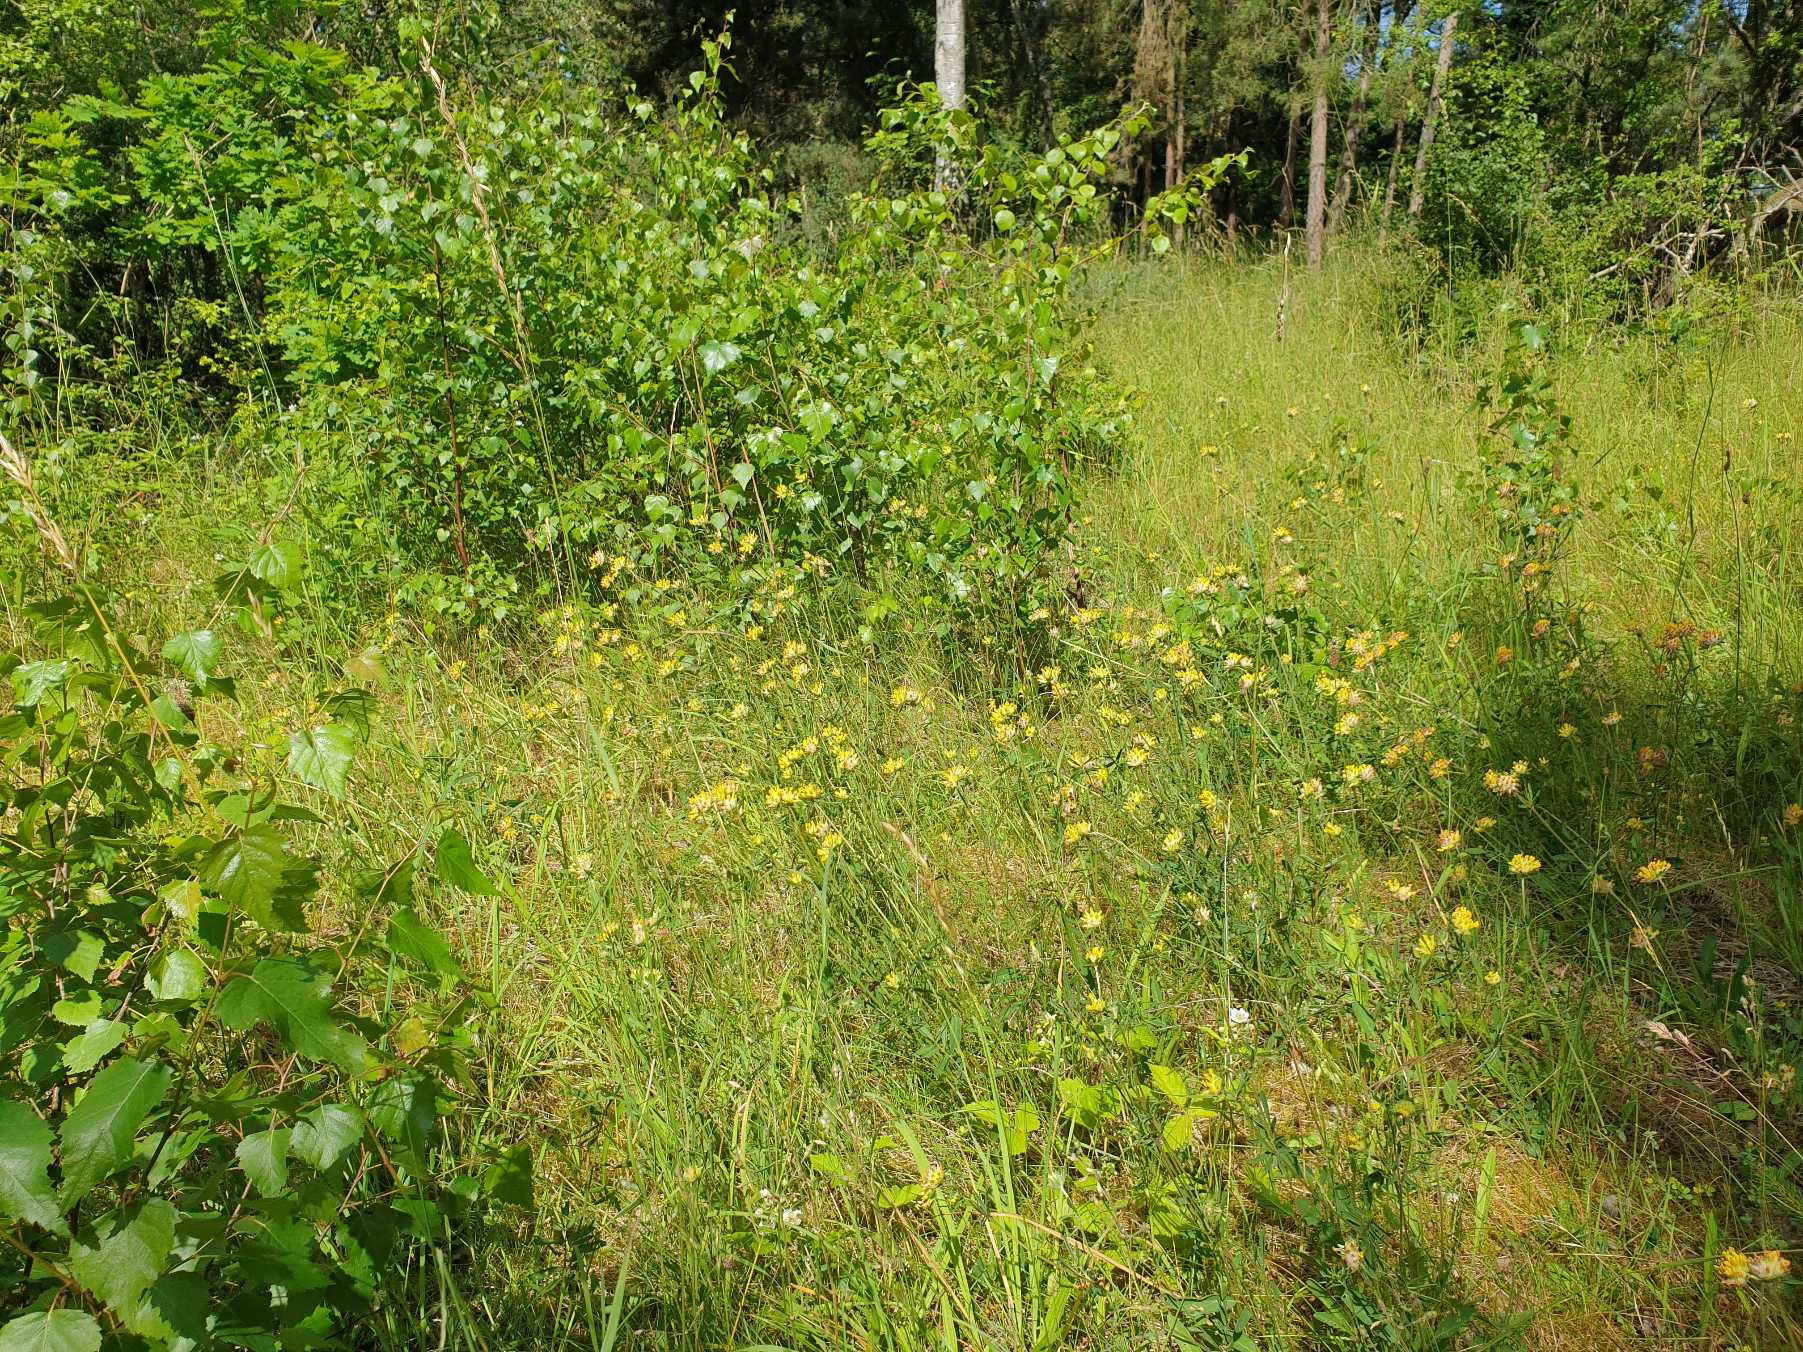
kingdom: Plantae
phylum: Tracheophyta
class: Magnoliopsida
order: Fabales
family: Fabaceae
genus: Anthyllis
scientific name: Anthyllis vulneraria
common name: Rundbælg
